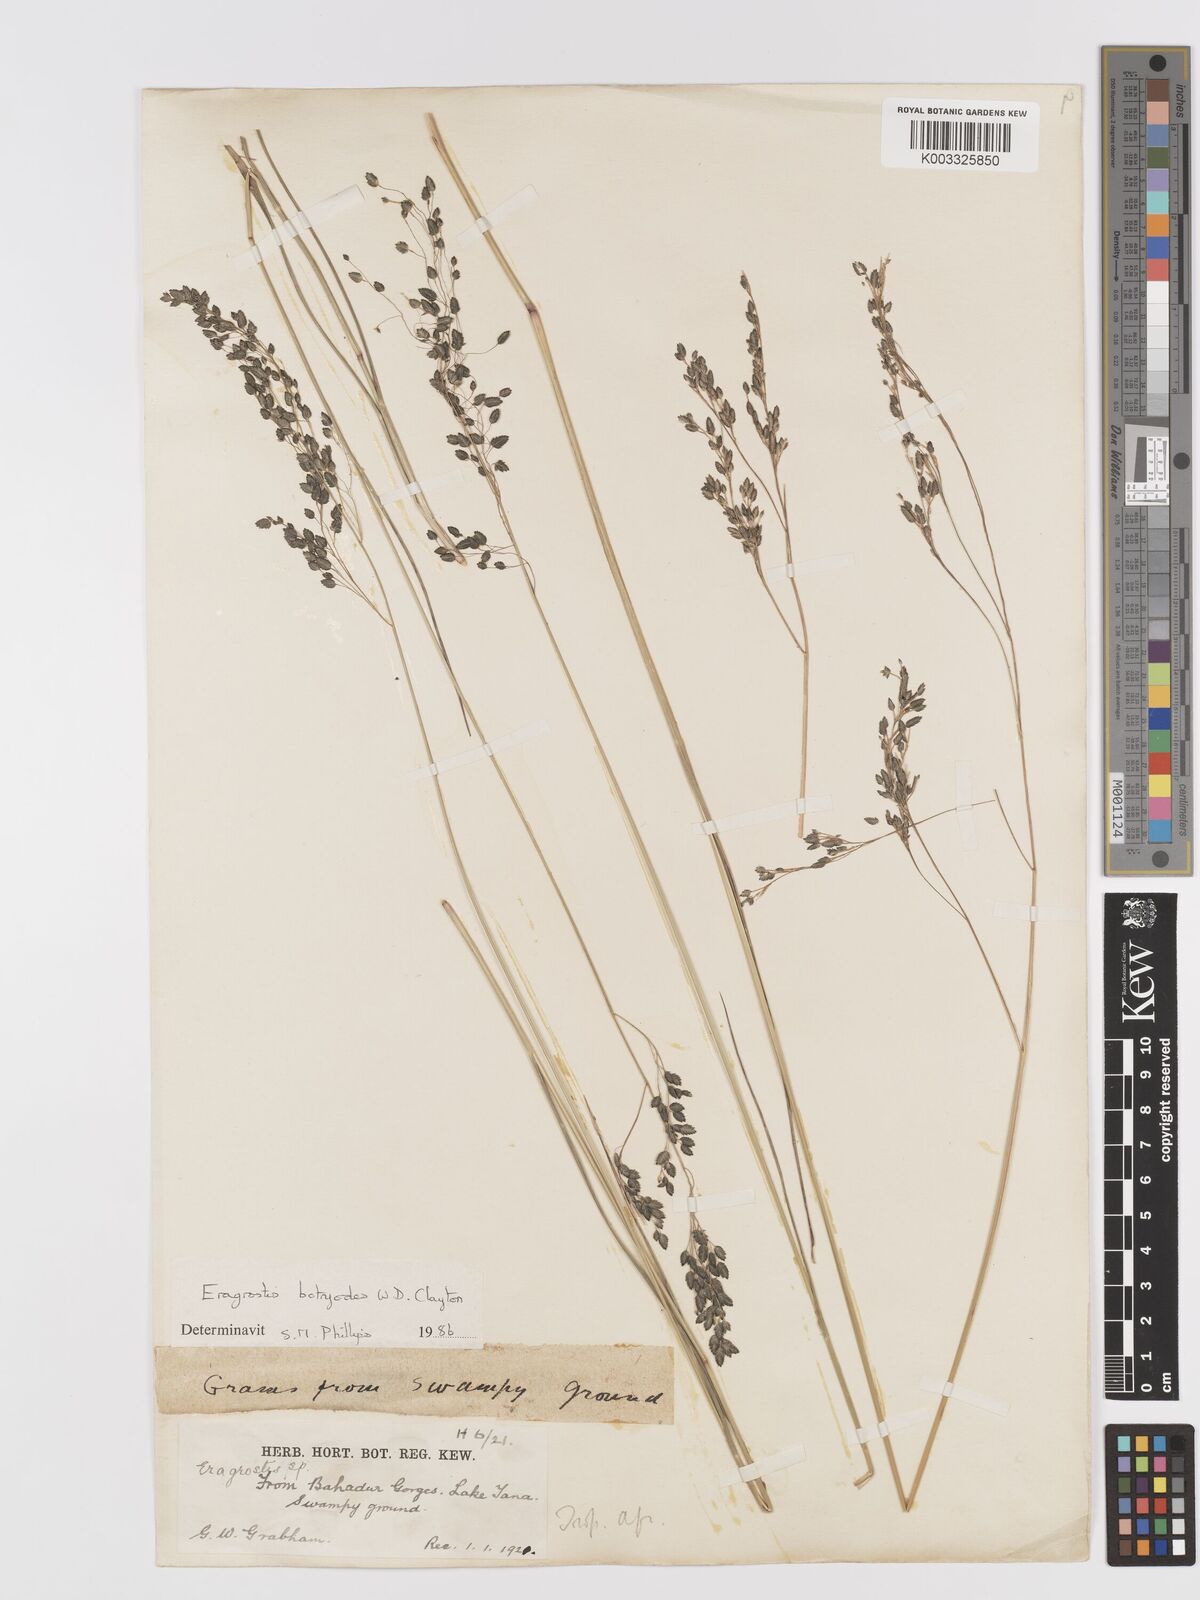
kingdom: Plantae
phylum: Tracheophyta
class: Liliopsida
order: Poales
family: Poaceae
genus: Eragrostis
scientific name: Eragrostis botryodes
